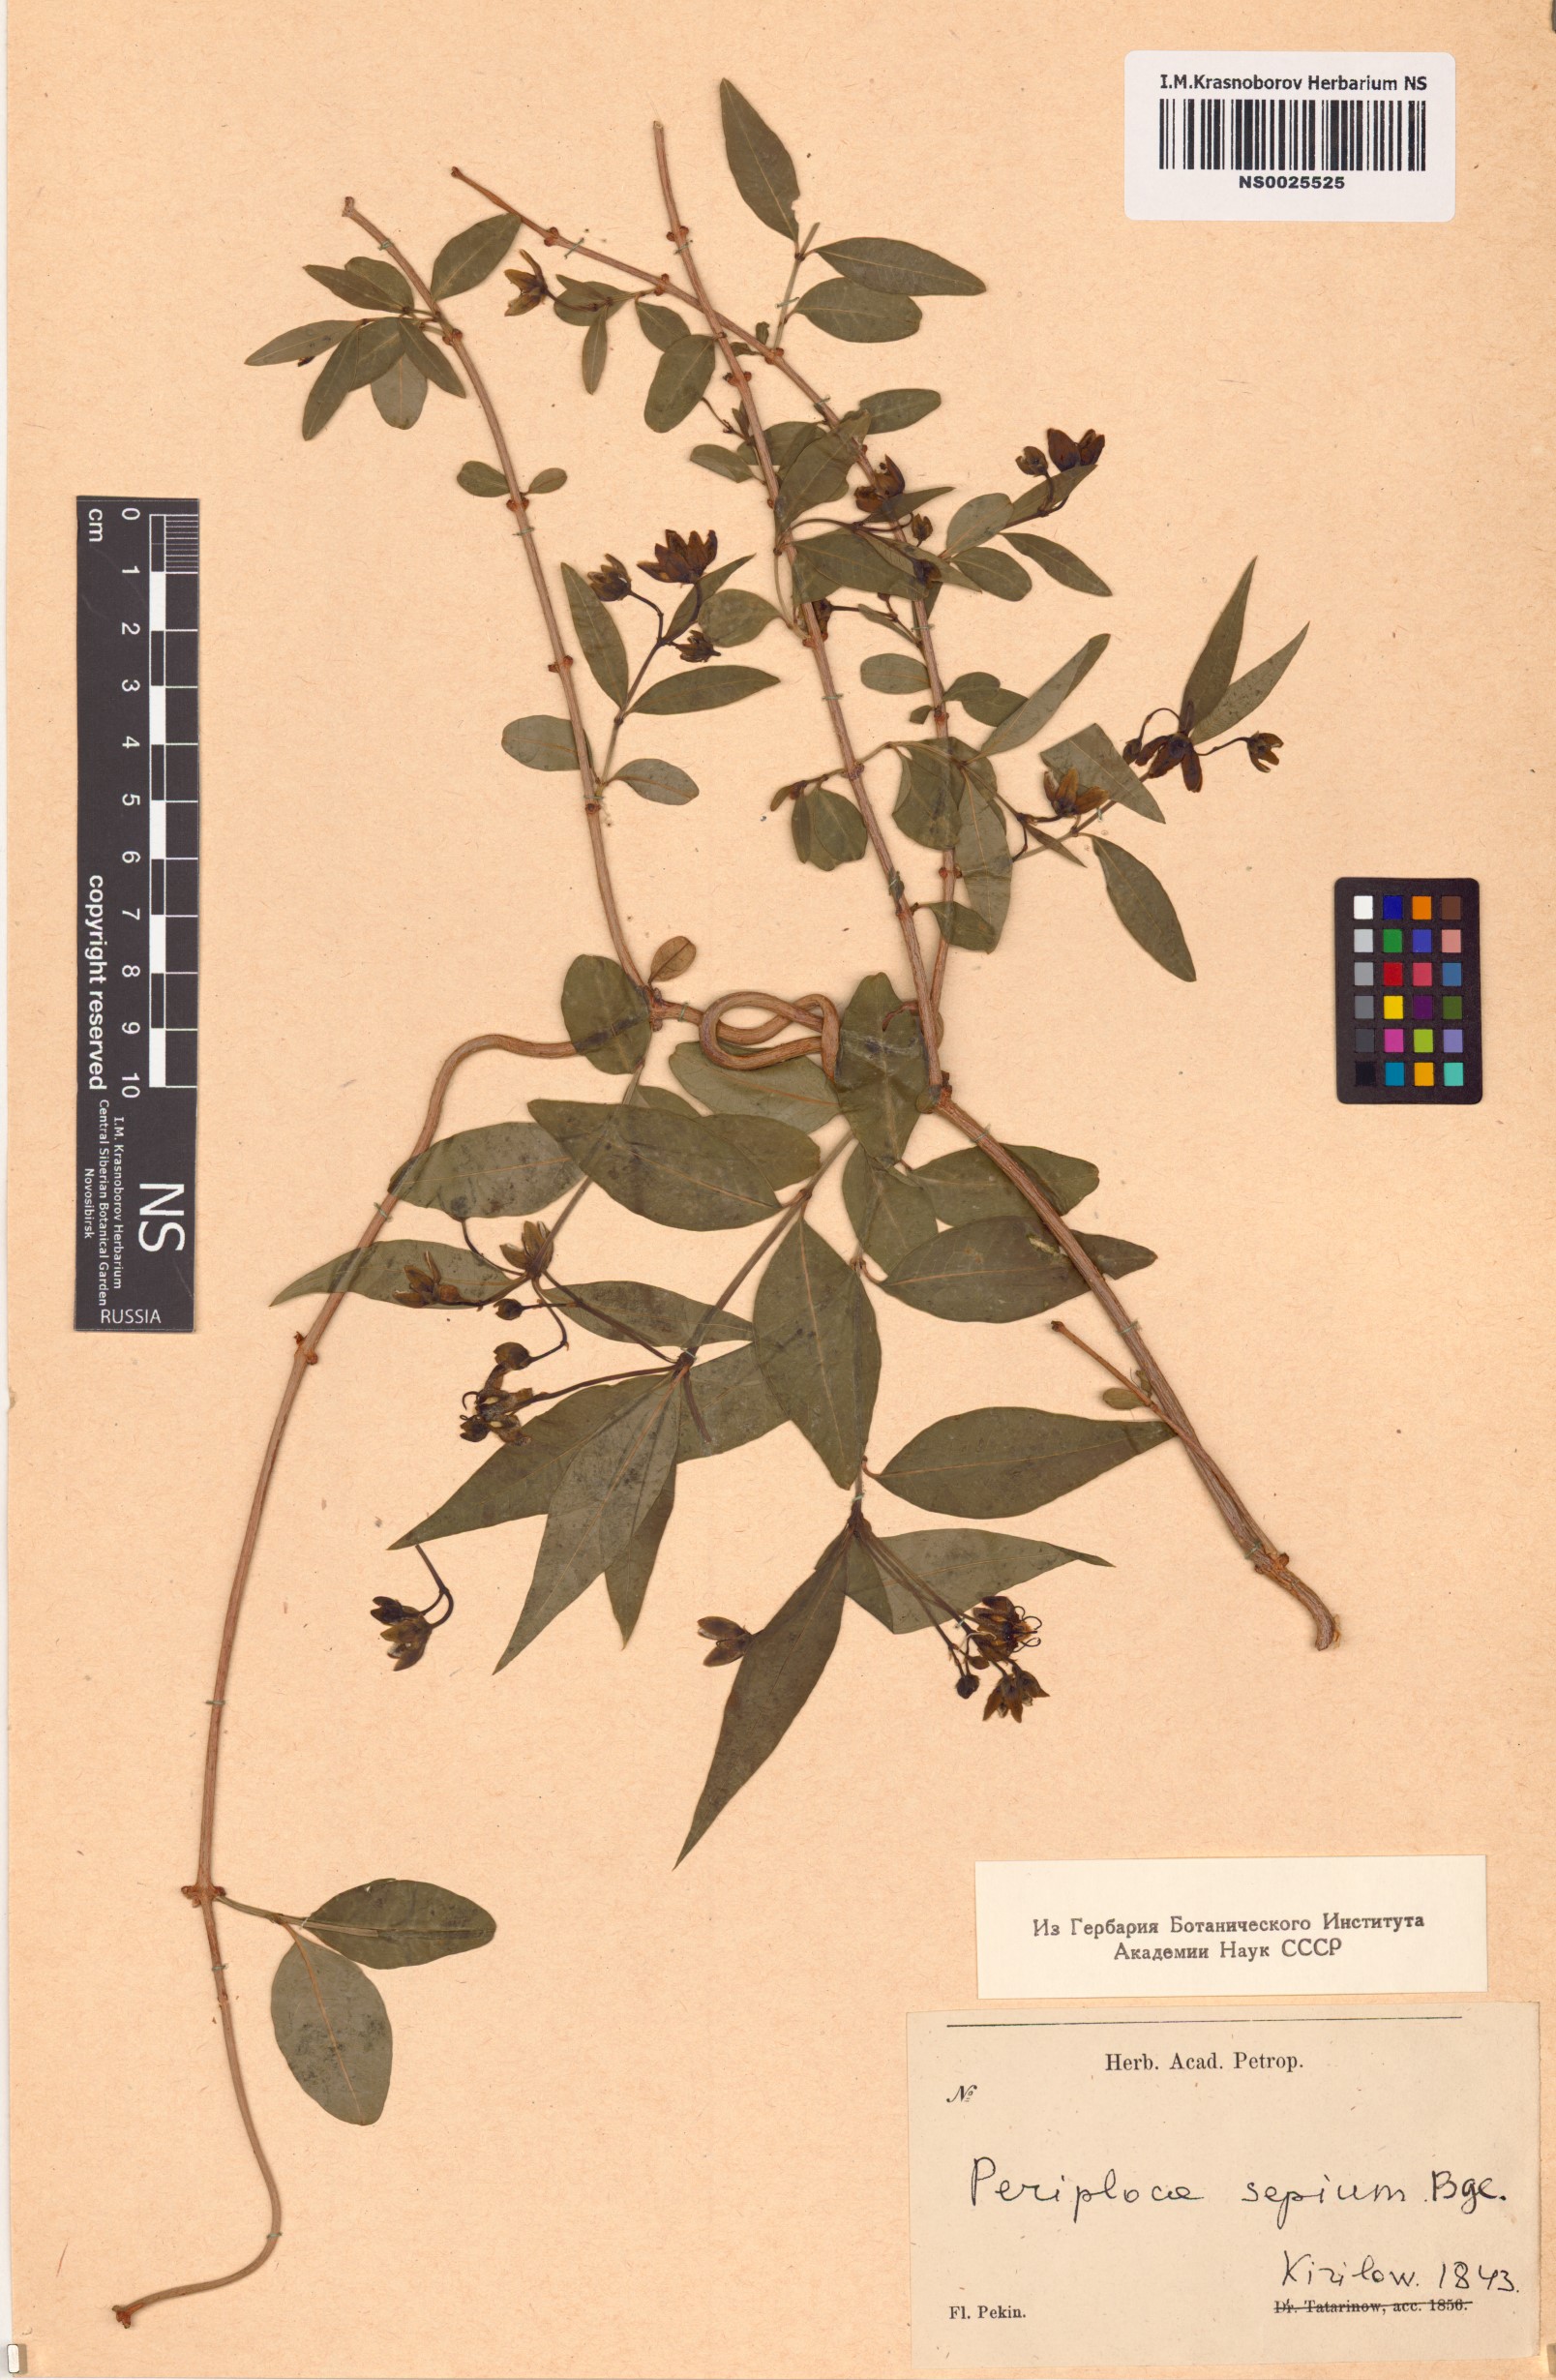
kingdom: Plantae
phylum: Tracheophyta
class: Magnoliopsida
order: Gentianales
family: Apocynaceae
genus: Periploca
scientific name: Periploca sepium
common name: Chinese silkvine
